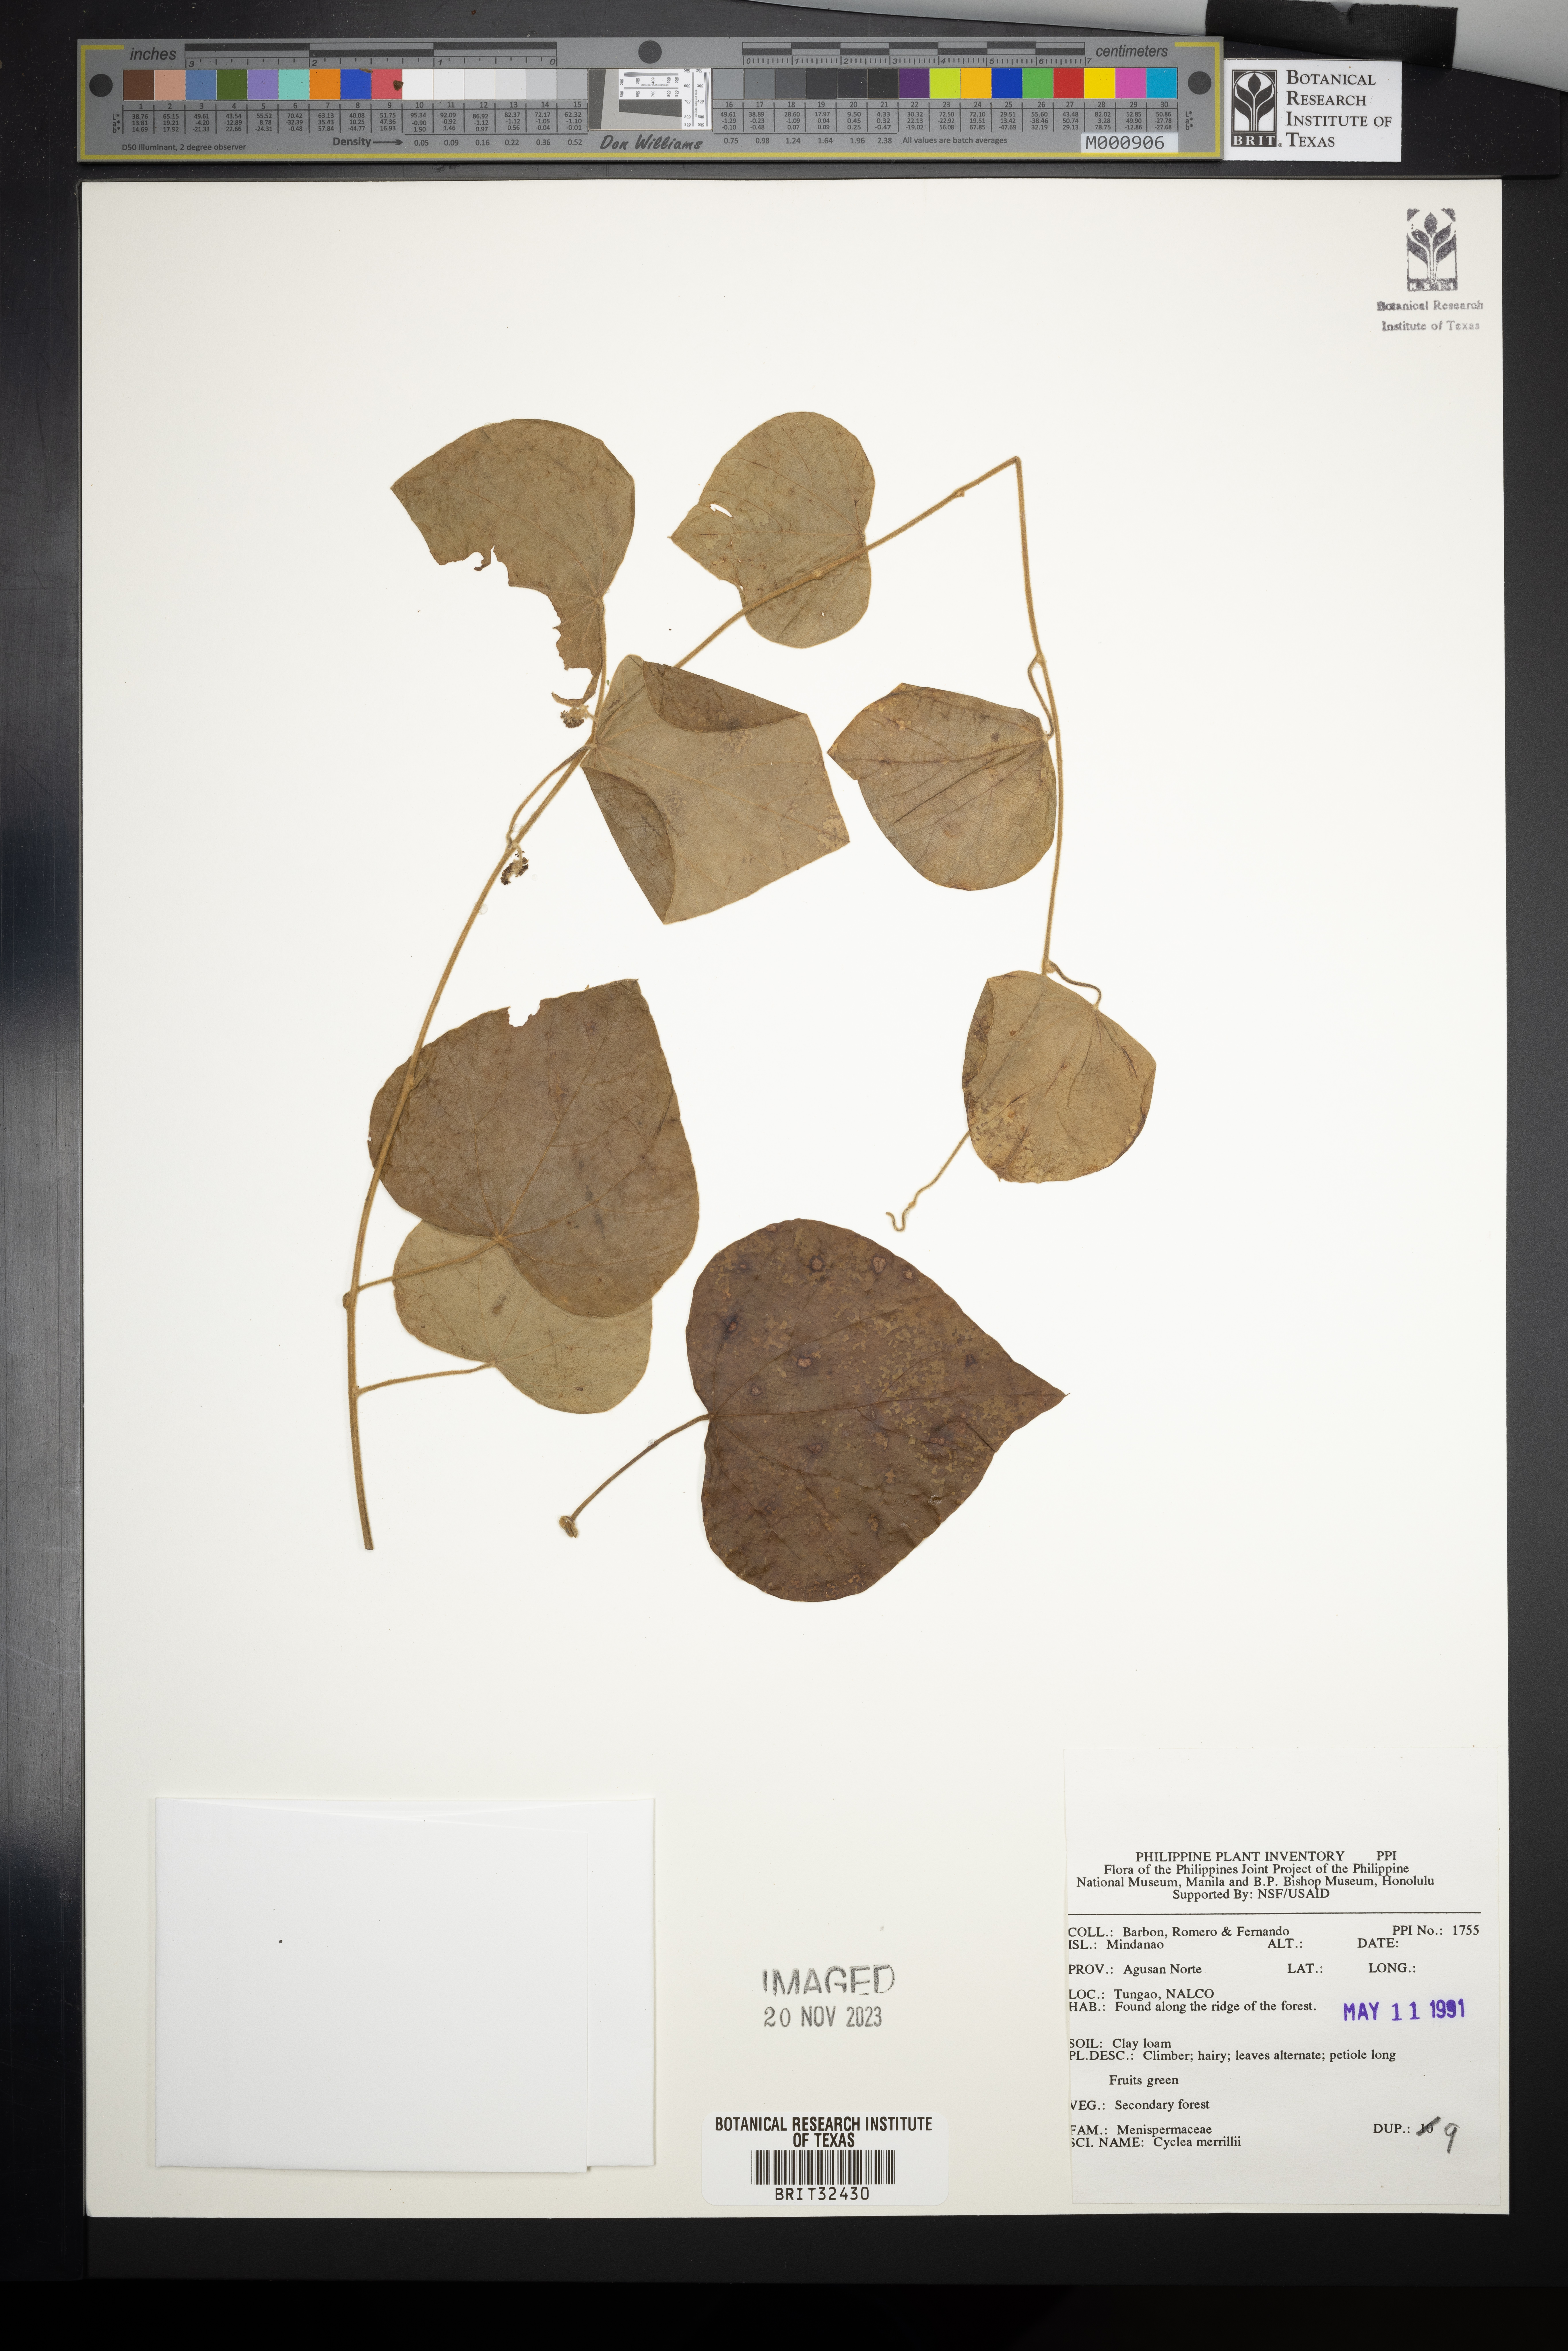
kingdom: Plantae
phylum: Tracheophyta
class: Magnoliopsida
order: Ranunculales
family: Menispermaceae
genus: Cyclea
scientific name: Cyclea merrillii
